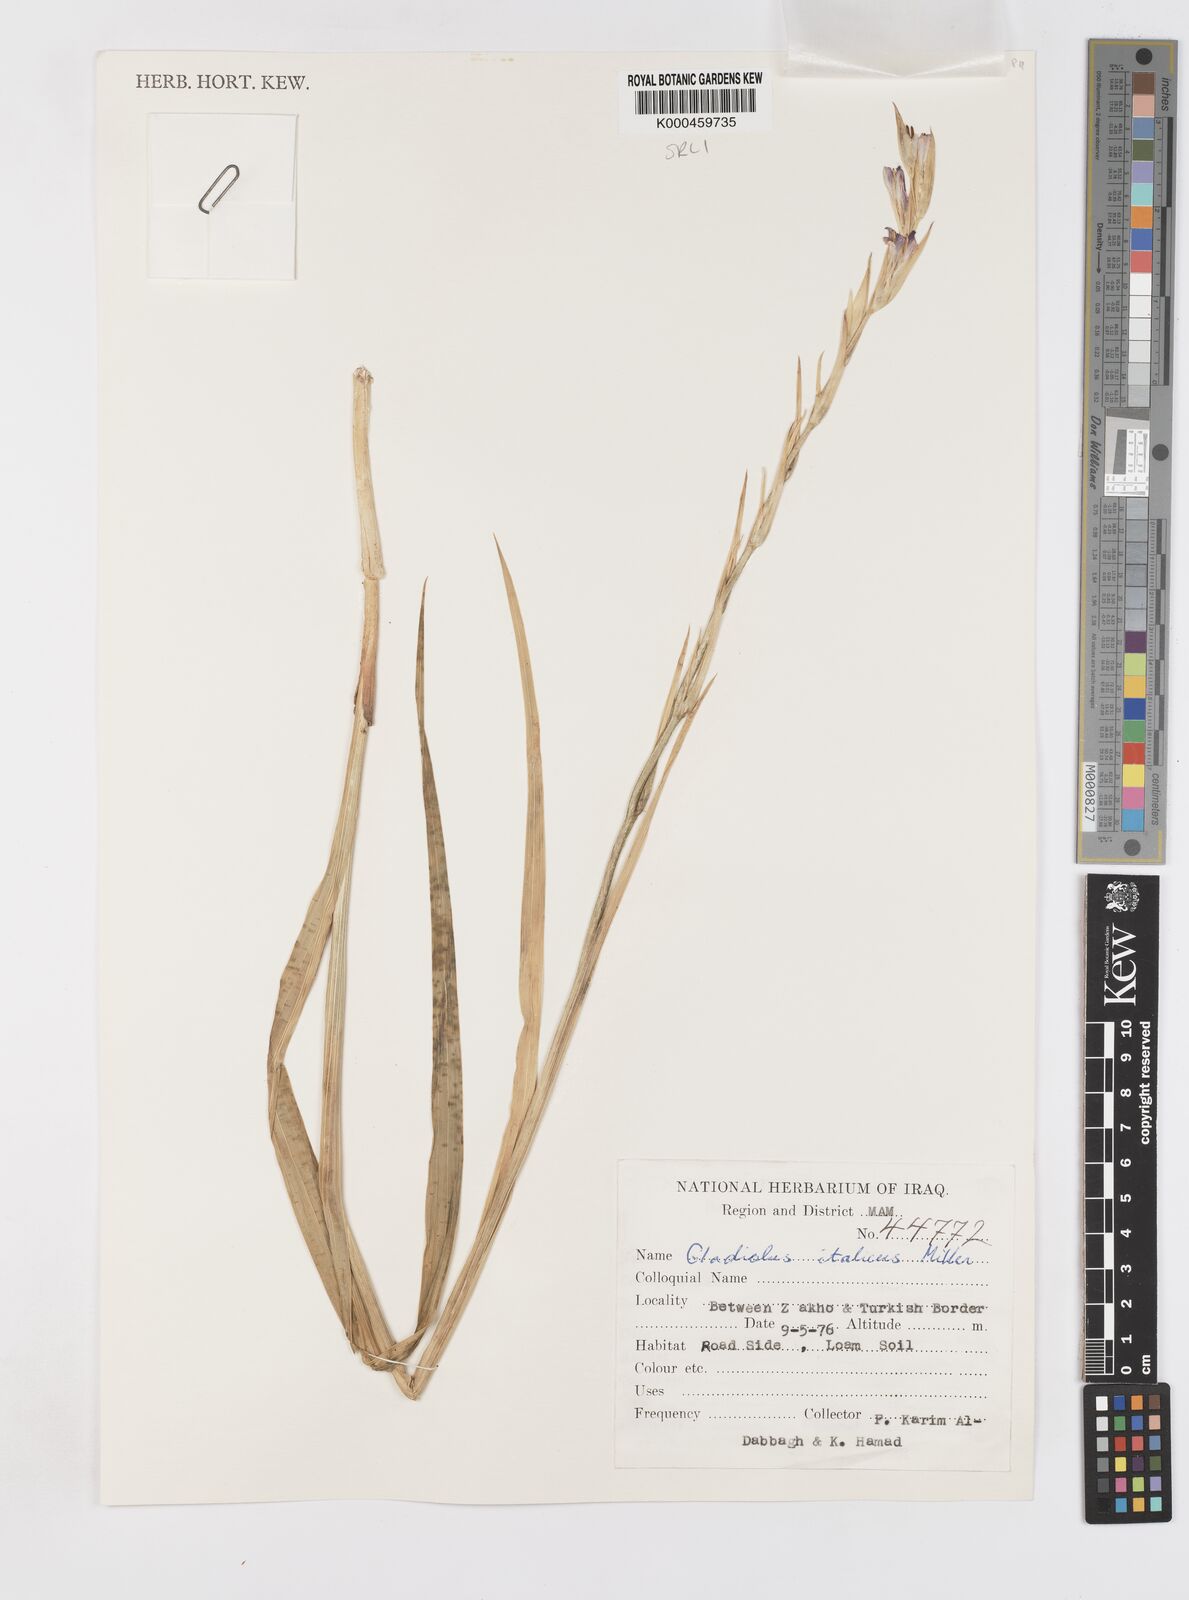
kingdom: Plantae
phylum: Tracheophyta
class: Liliopsida
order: Asparagales
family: Iridaceae
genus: Gladiolus
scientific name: Gladiolus italicus
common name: Field gladiolus
